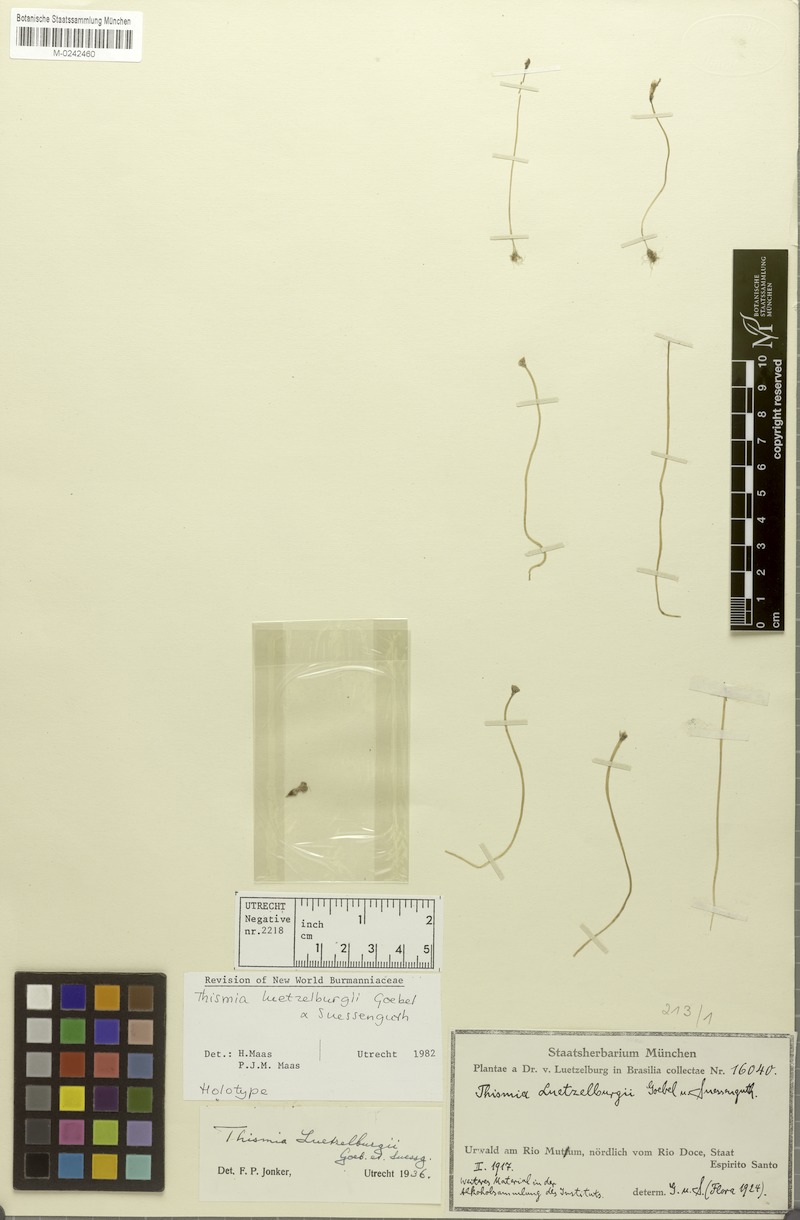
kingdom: Plantae
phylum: Tracheophyta
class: Liliopsida
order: Dioscoreales
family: Burmanniaceae
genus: Thismia
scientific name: Thismia luetzelburgii
